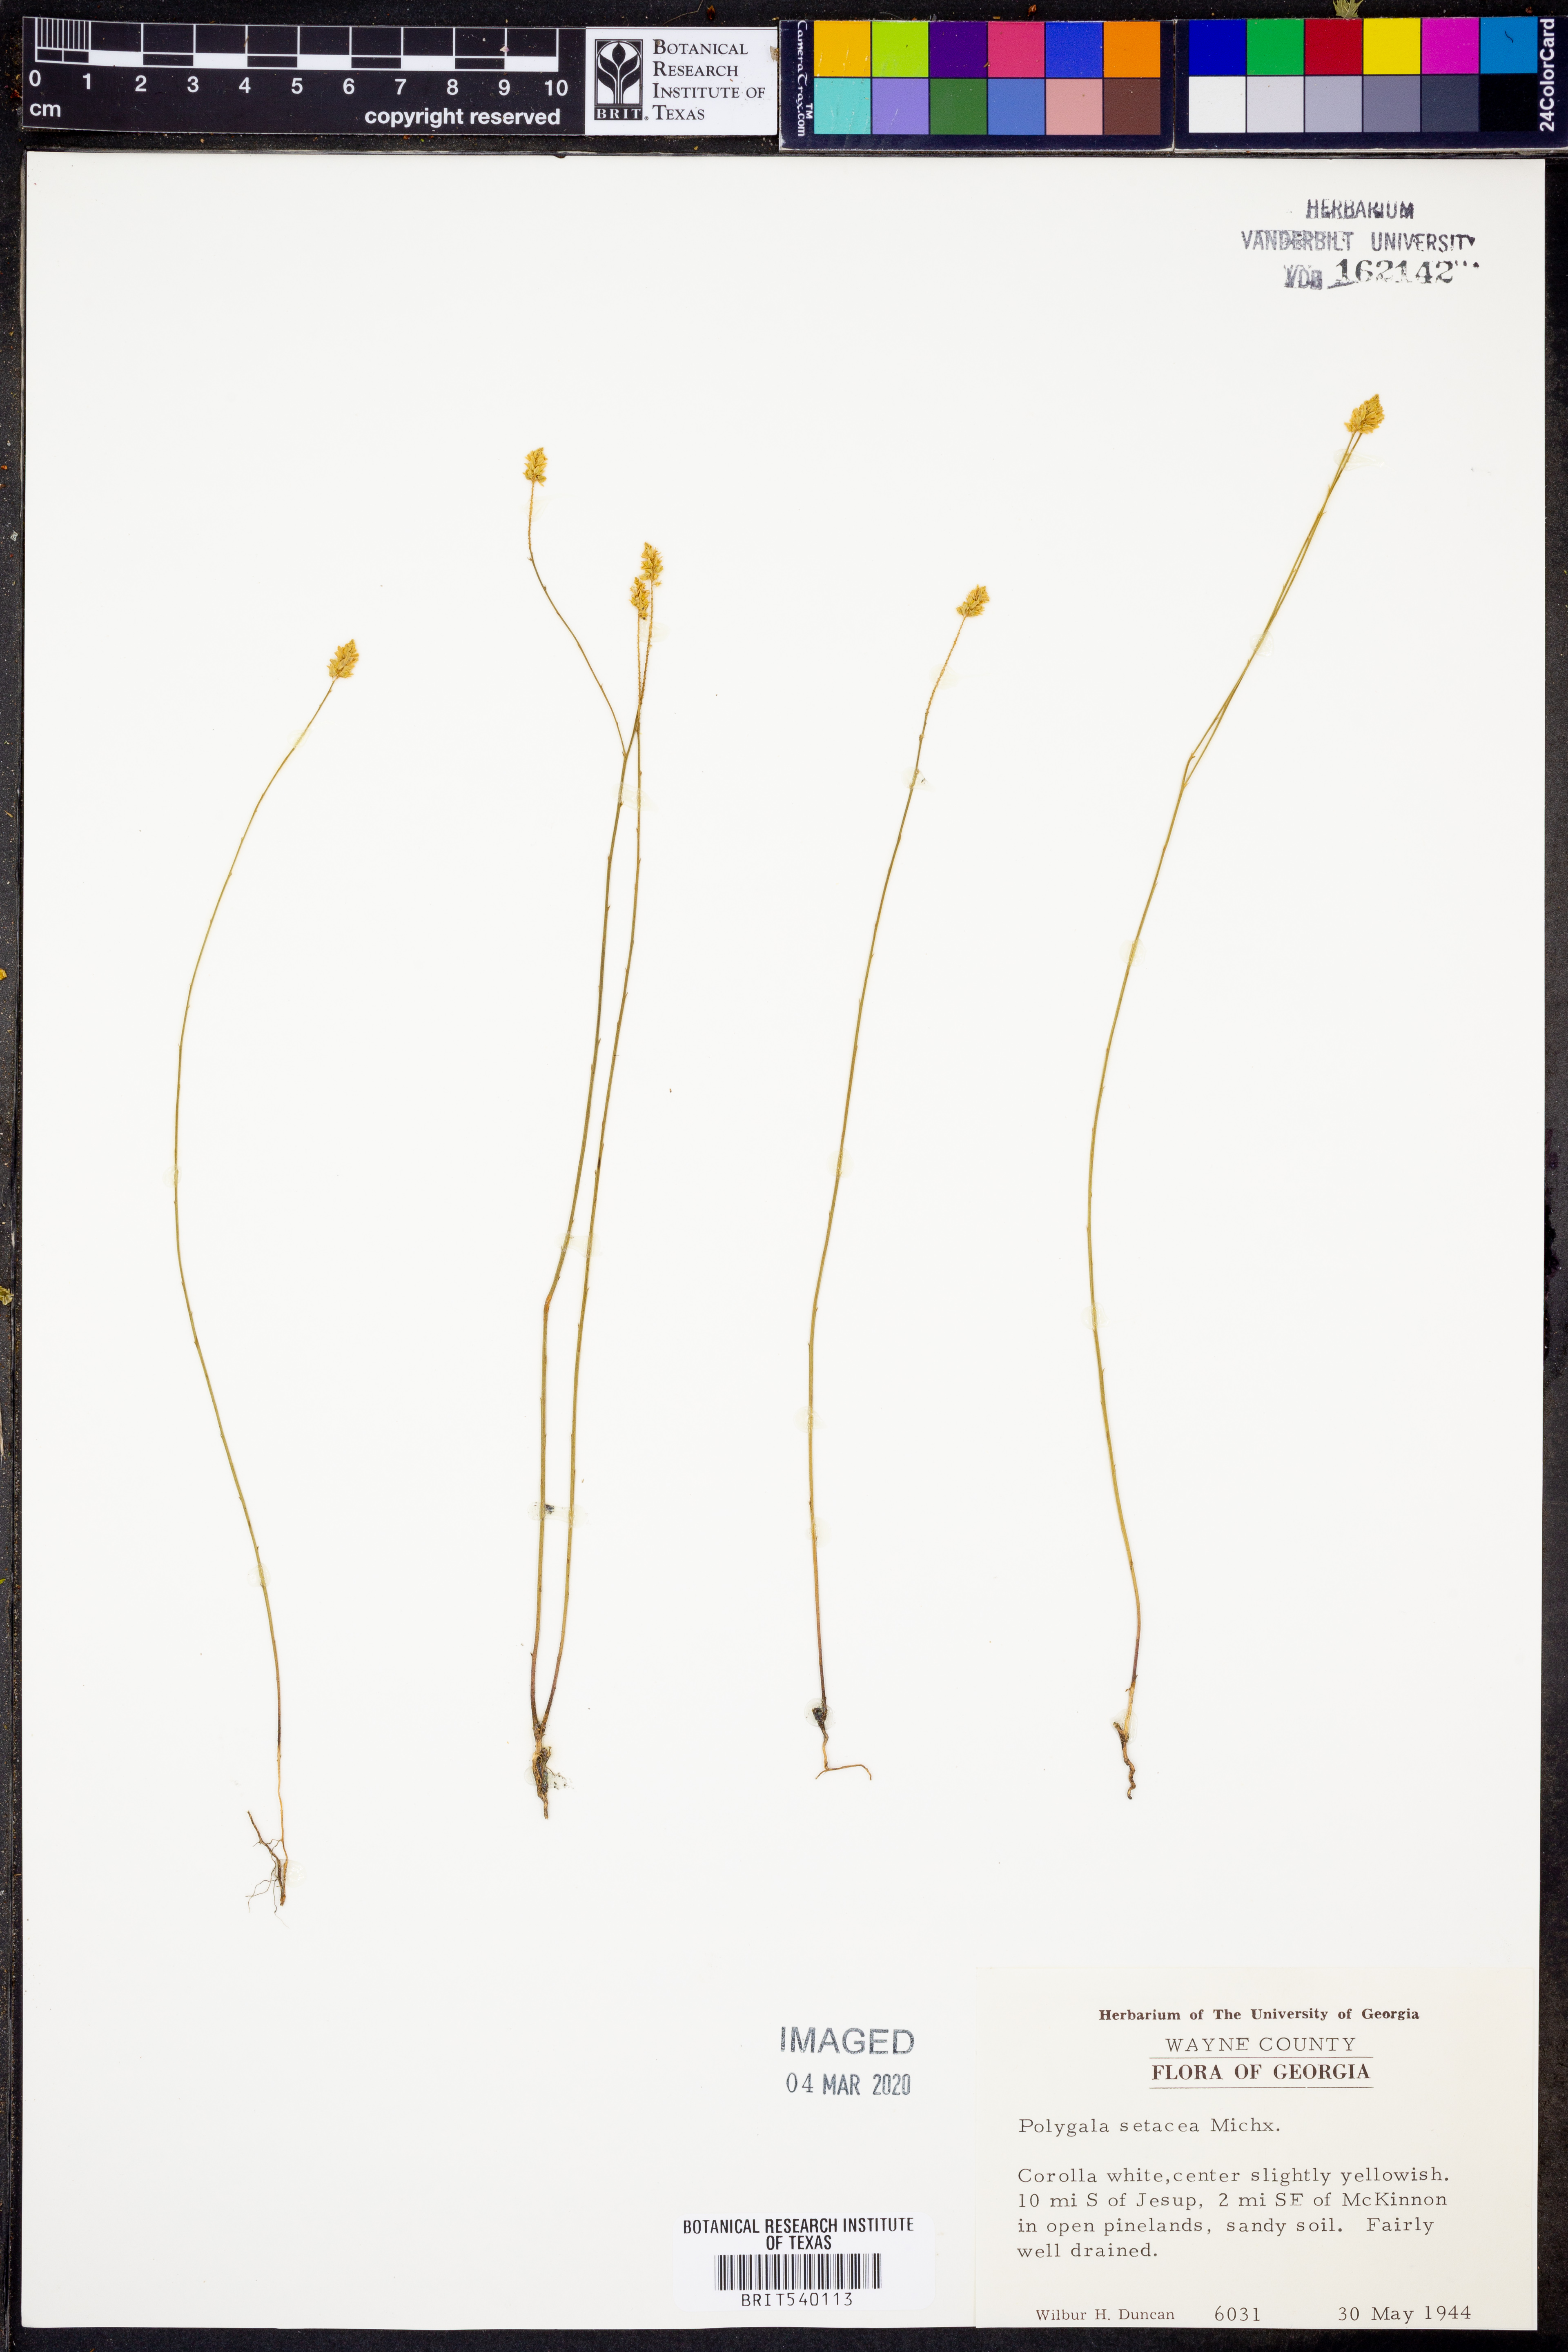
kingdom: Plantae
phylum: Tracheophyta
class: Magnoliopsida
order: Fabales
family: Polygalaceae
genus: Polygala
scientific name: Polygala setacea
